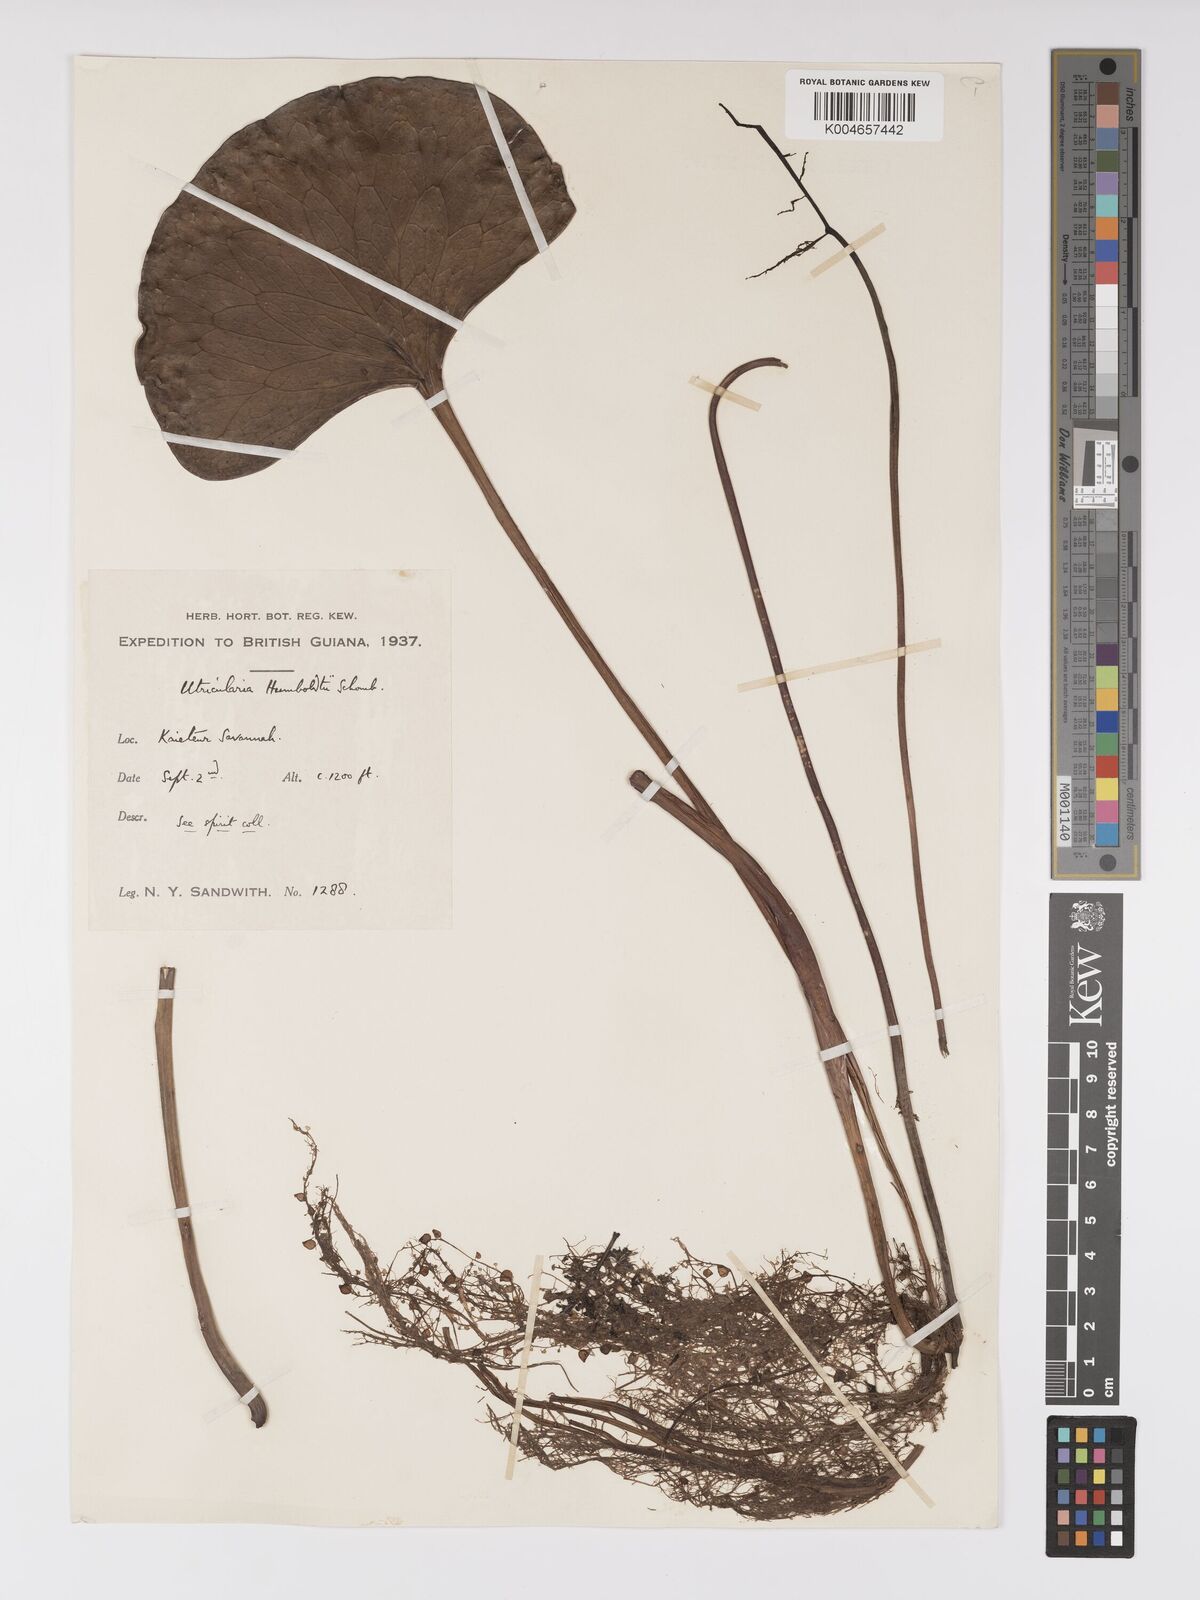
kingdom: Plantae
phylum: Tracheophyta
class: Magnoliopsida
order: Lamiales
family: Lentibulariaceae
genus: Utricularia
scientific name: Utricularia humboldtii
